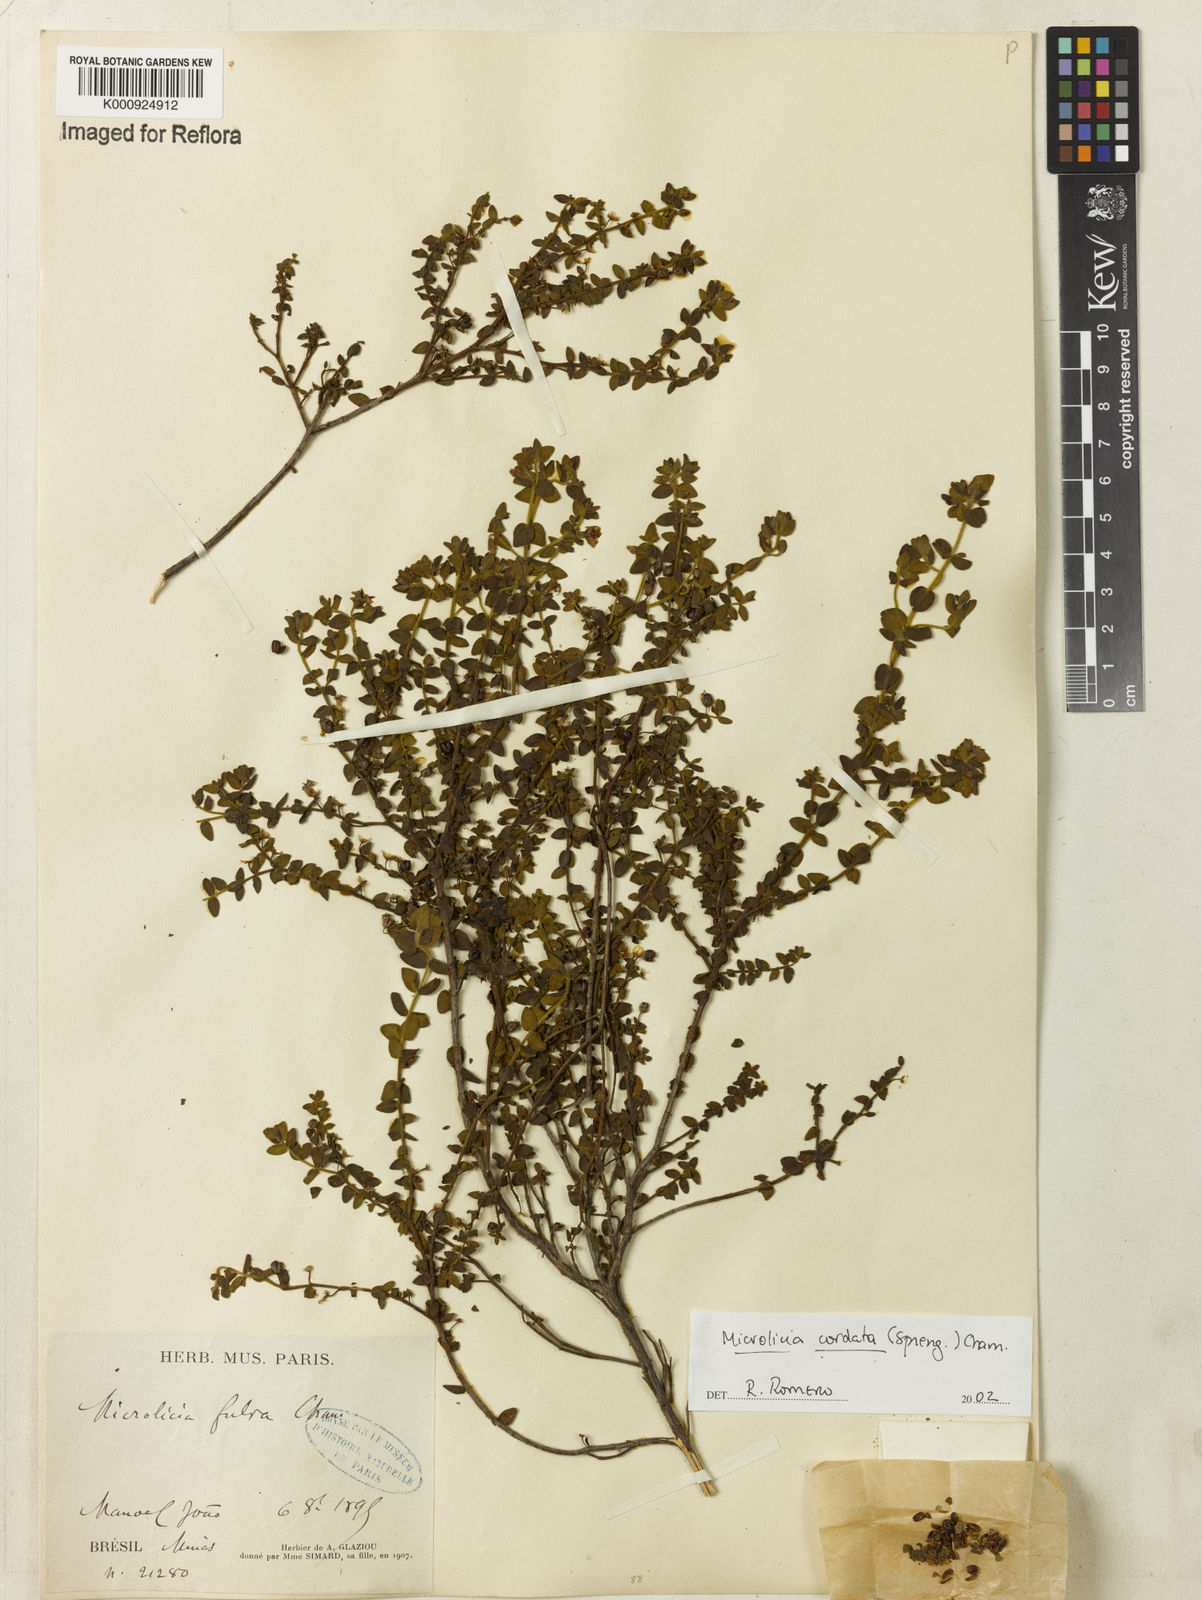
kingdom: Plantae
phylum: Tracheophyta
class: Magnoliopsida
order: Myrtales
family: Melastomataceae
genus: Microlicia
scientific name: Microlicia cordata
